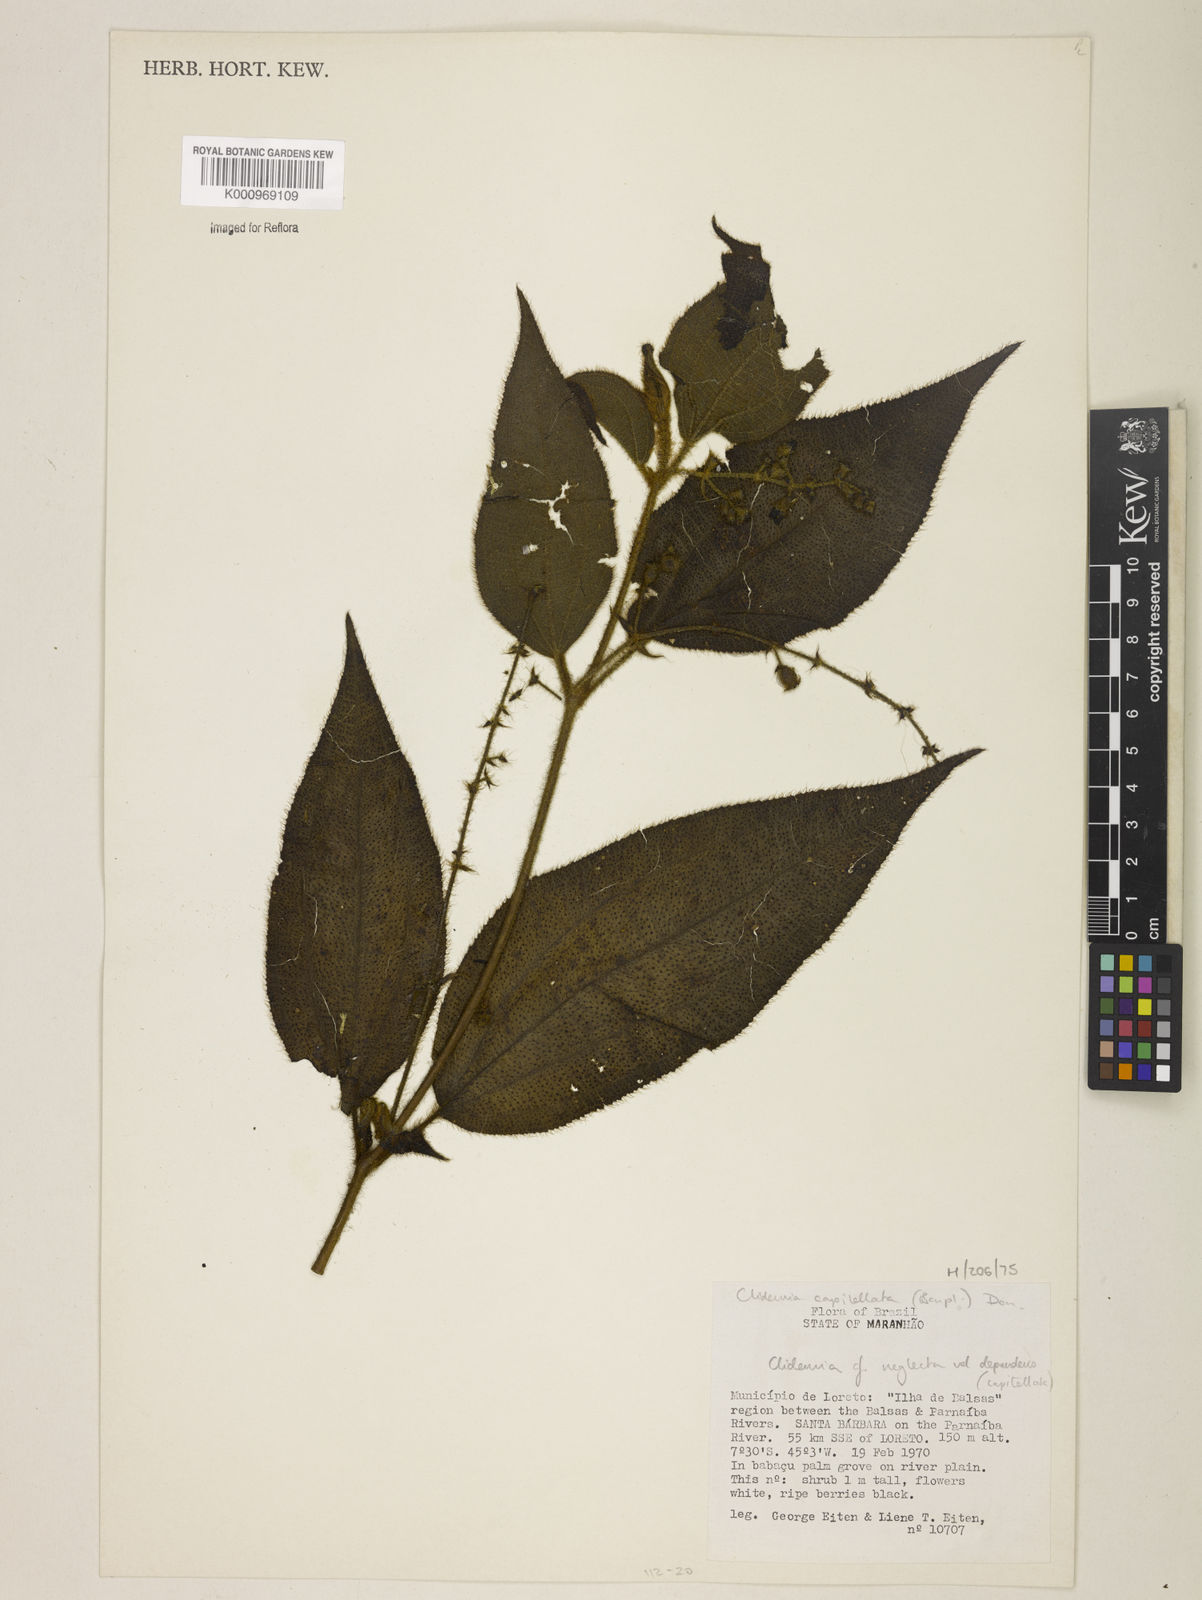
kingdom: Plantae
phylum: Tracheophyta
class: Magnoliopsida
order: Myrtales
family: Melastomataceae
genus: Miconia
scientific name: Miconia dependens
